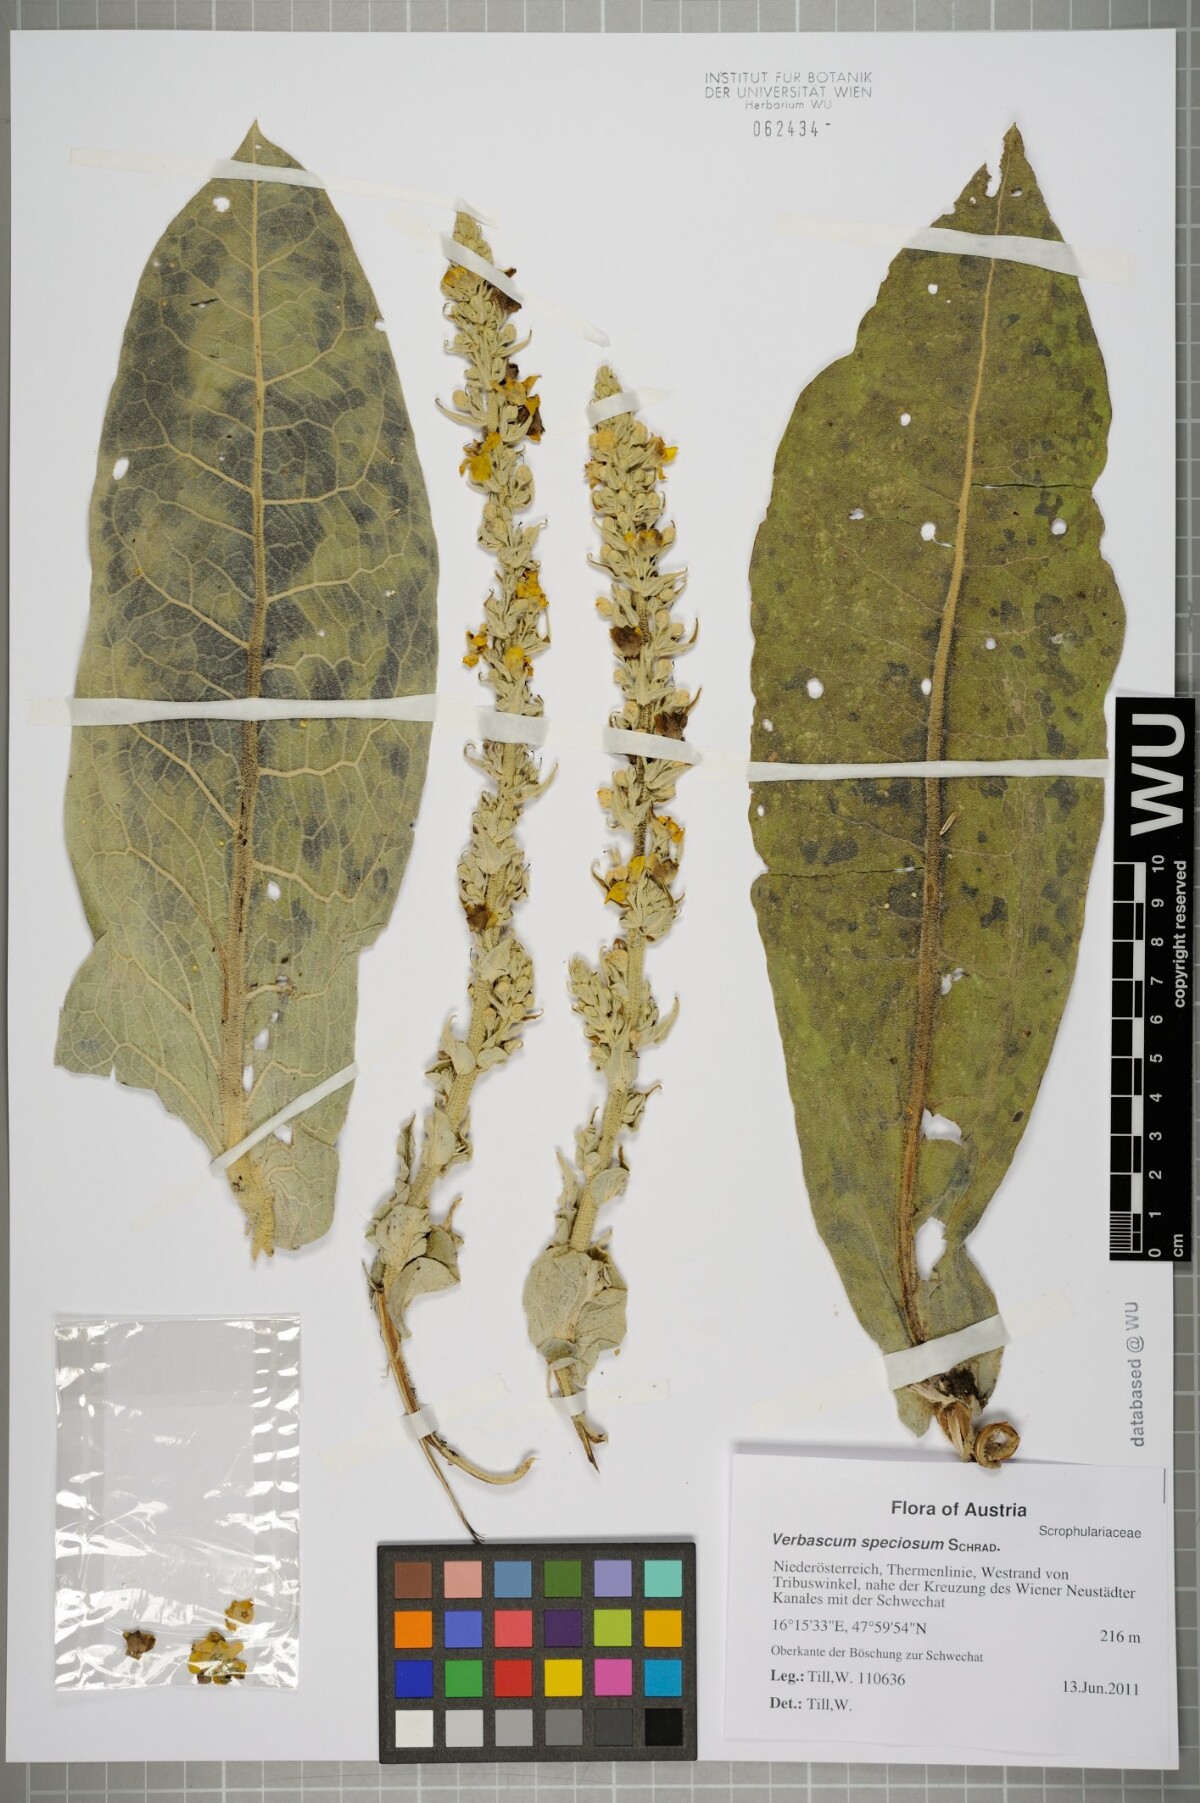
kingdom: Plantae
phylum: Tracheophyta
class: Magnoliopsida
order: Lamiales
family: Scrophulariaceae
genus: Verbascum
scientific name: Verbascum speciosum
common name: Hungarian mullein
